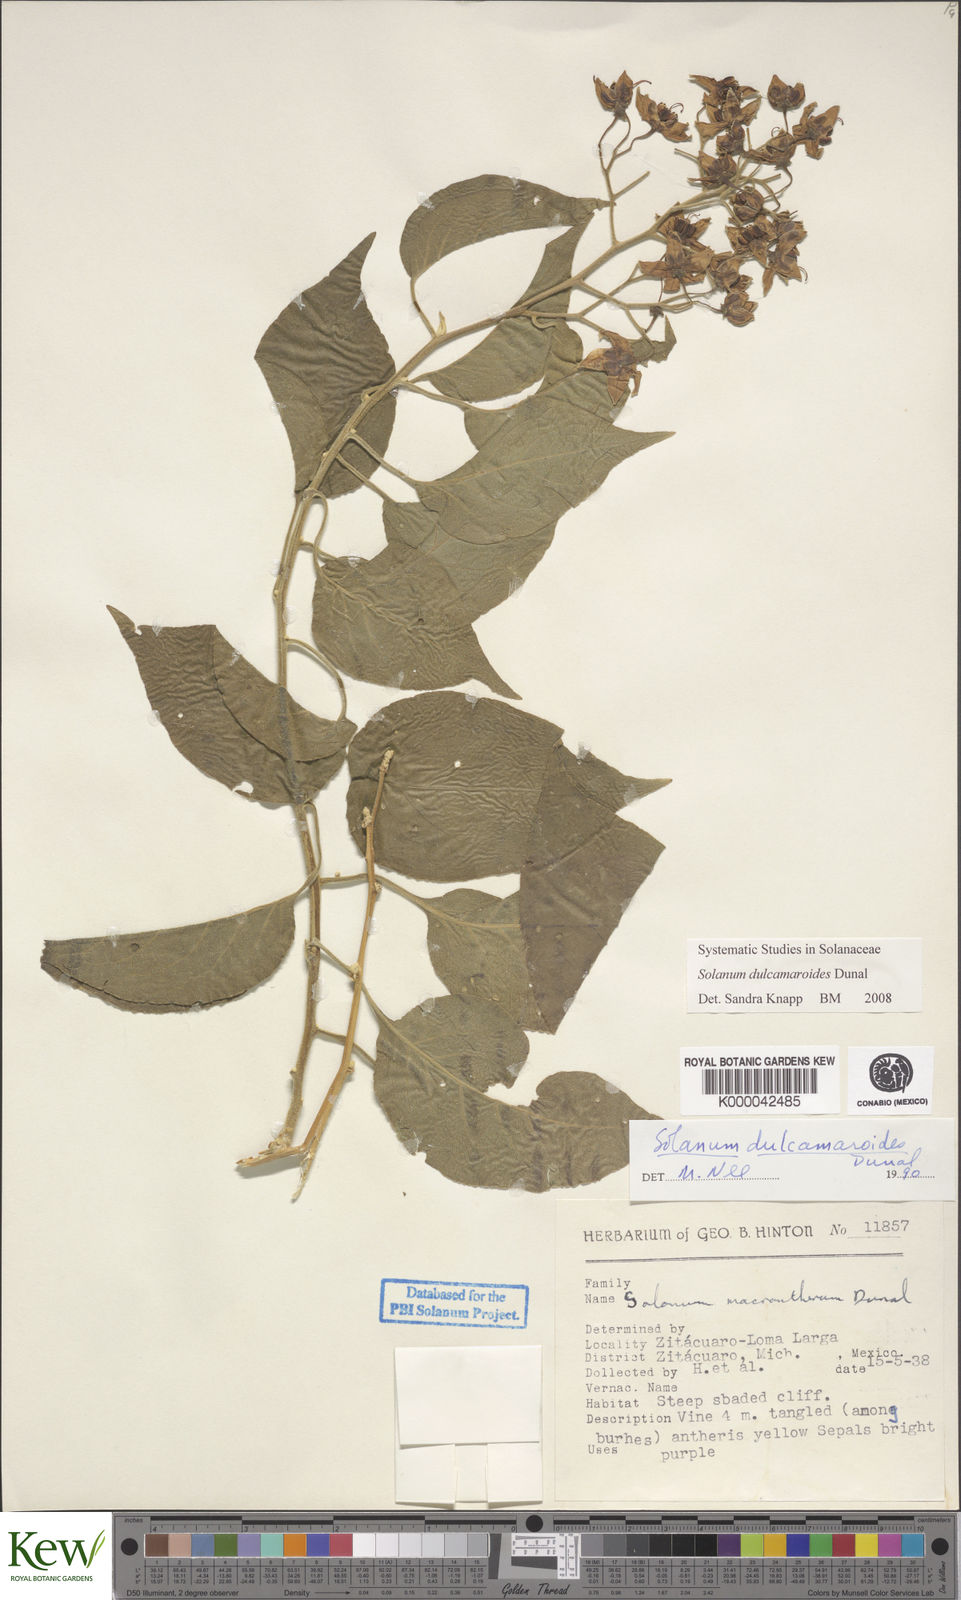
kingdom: Plantae
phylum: Tracheophyta
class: Magnoliopsida
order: Solanales
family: Solanaceae
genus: Solanum
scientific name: Solanum dulcamaroides
